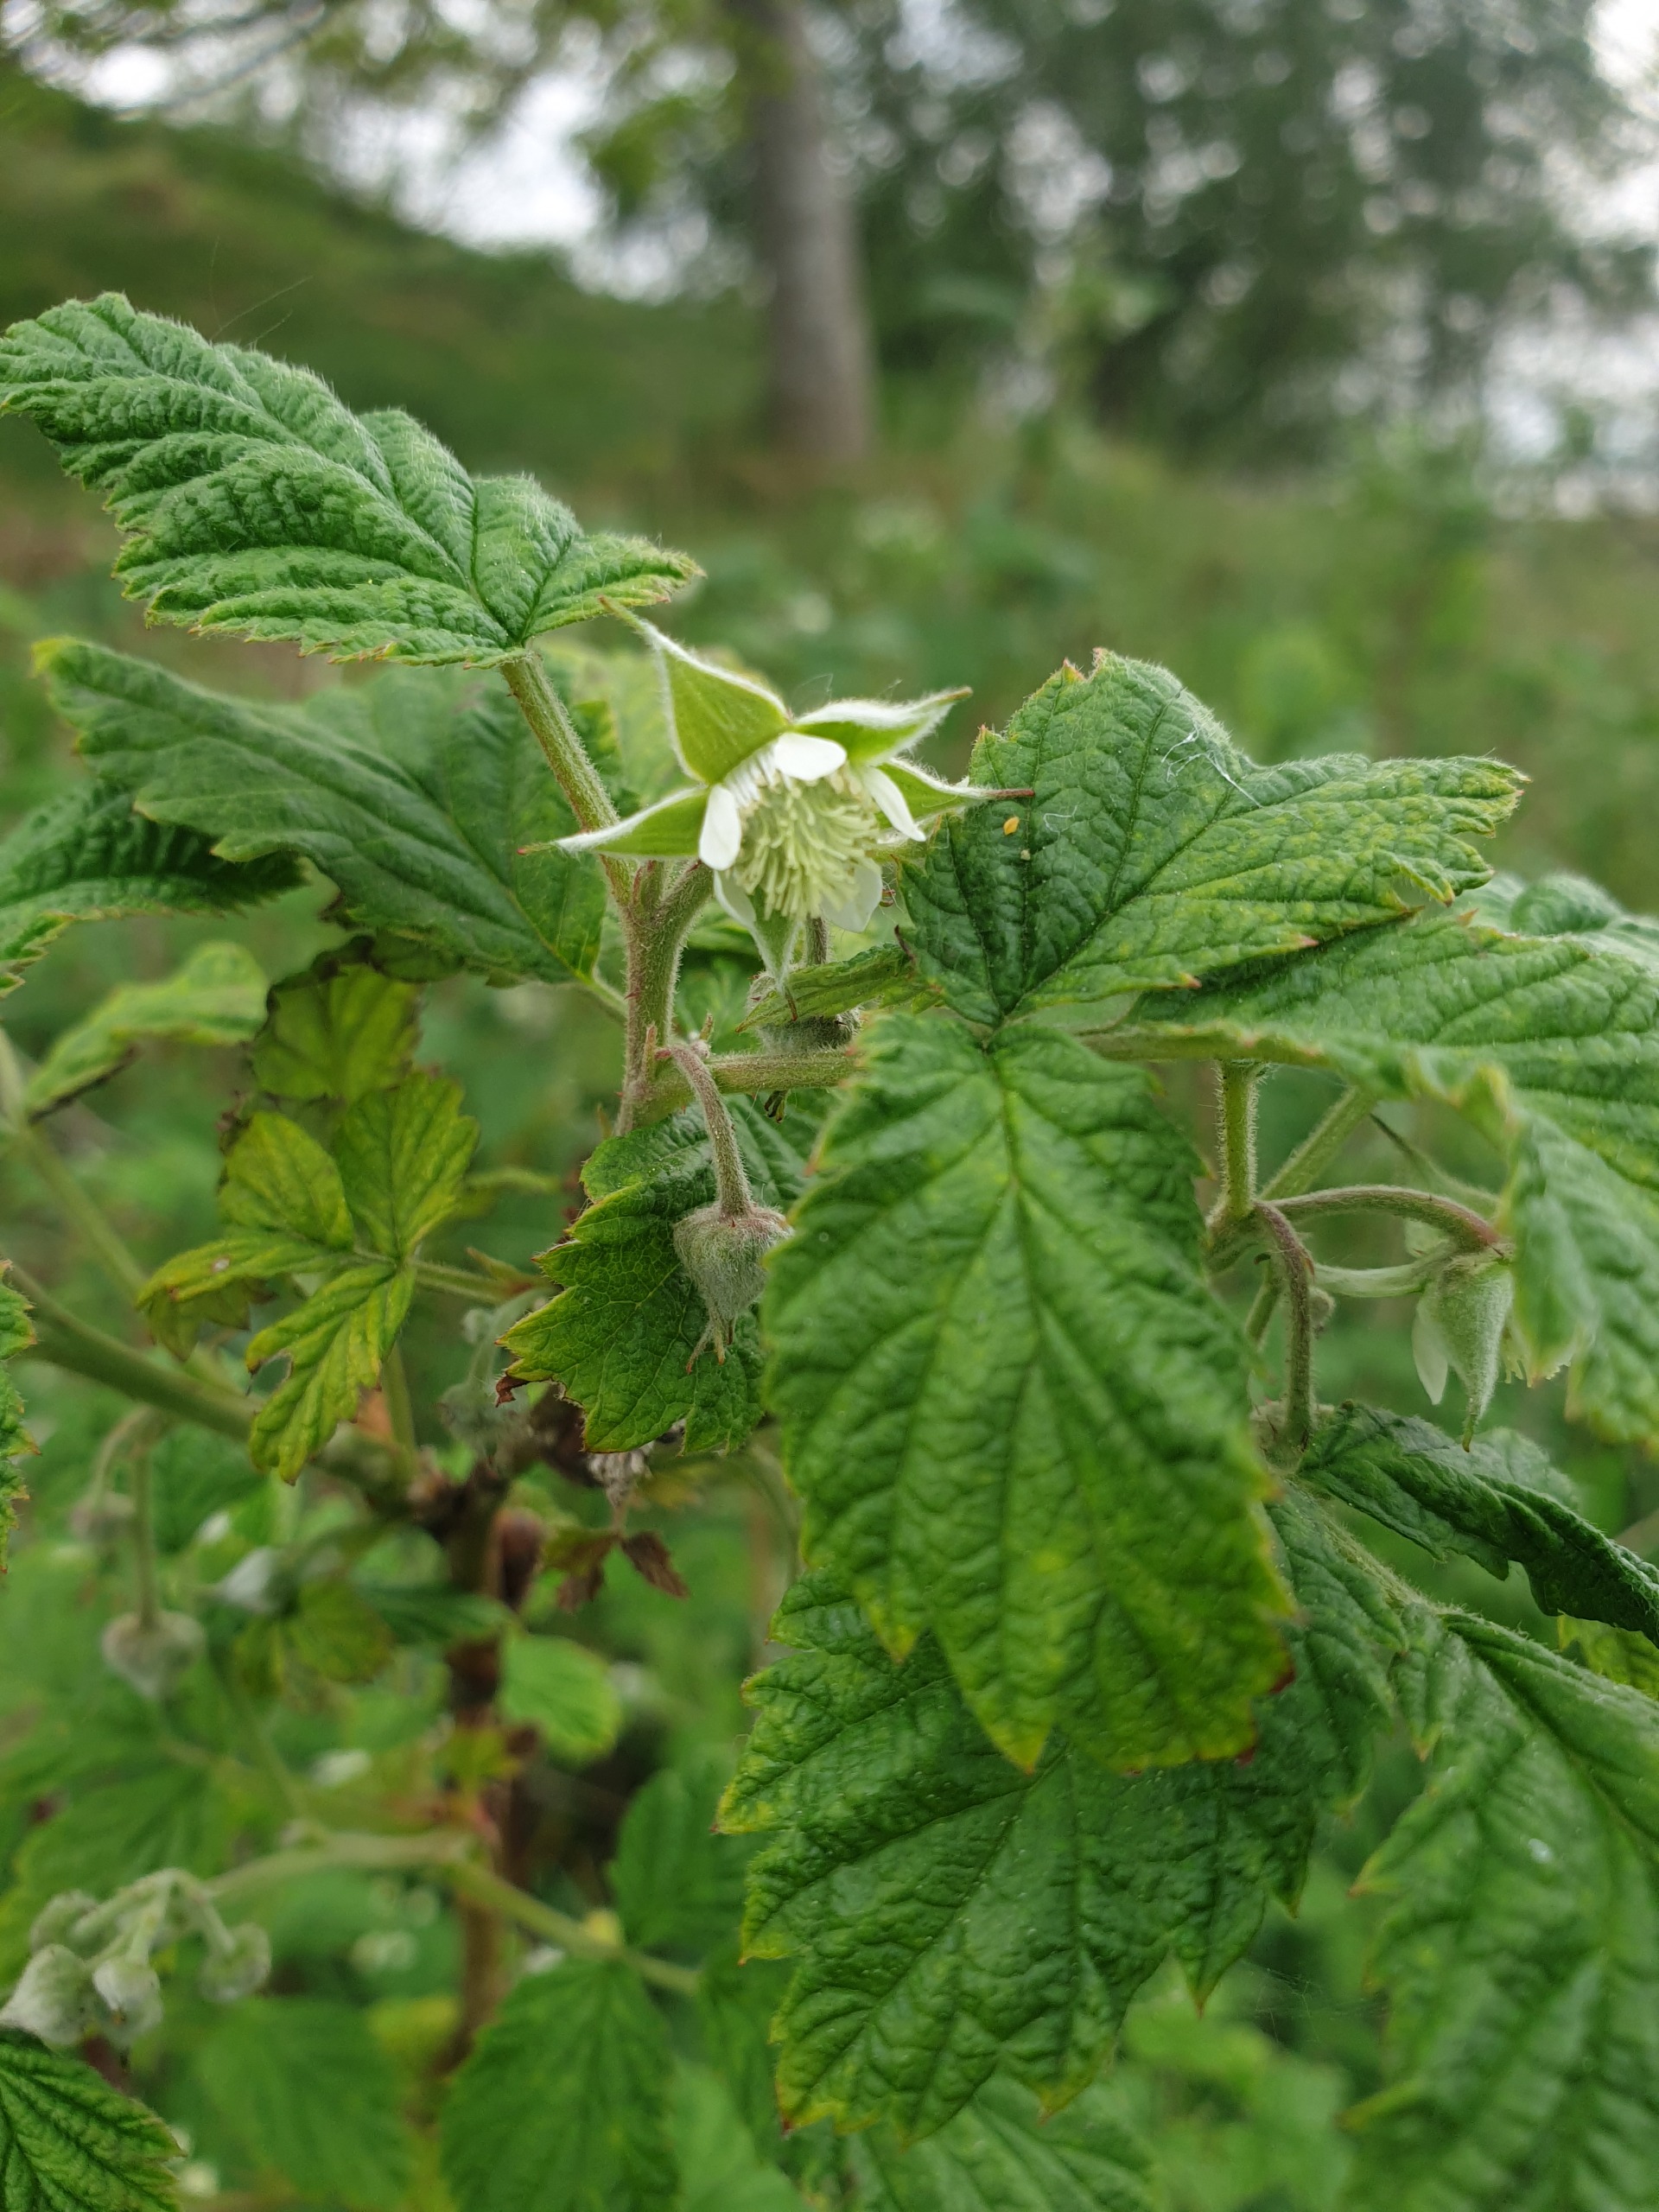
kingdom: Plantae
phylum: Tracheophyta
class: Magnoliopsida
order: Rosales
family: Rosaceae
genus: Rubus
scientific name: Rubus idaeus
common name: Hindbær
